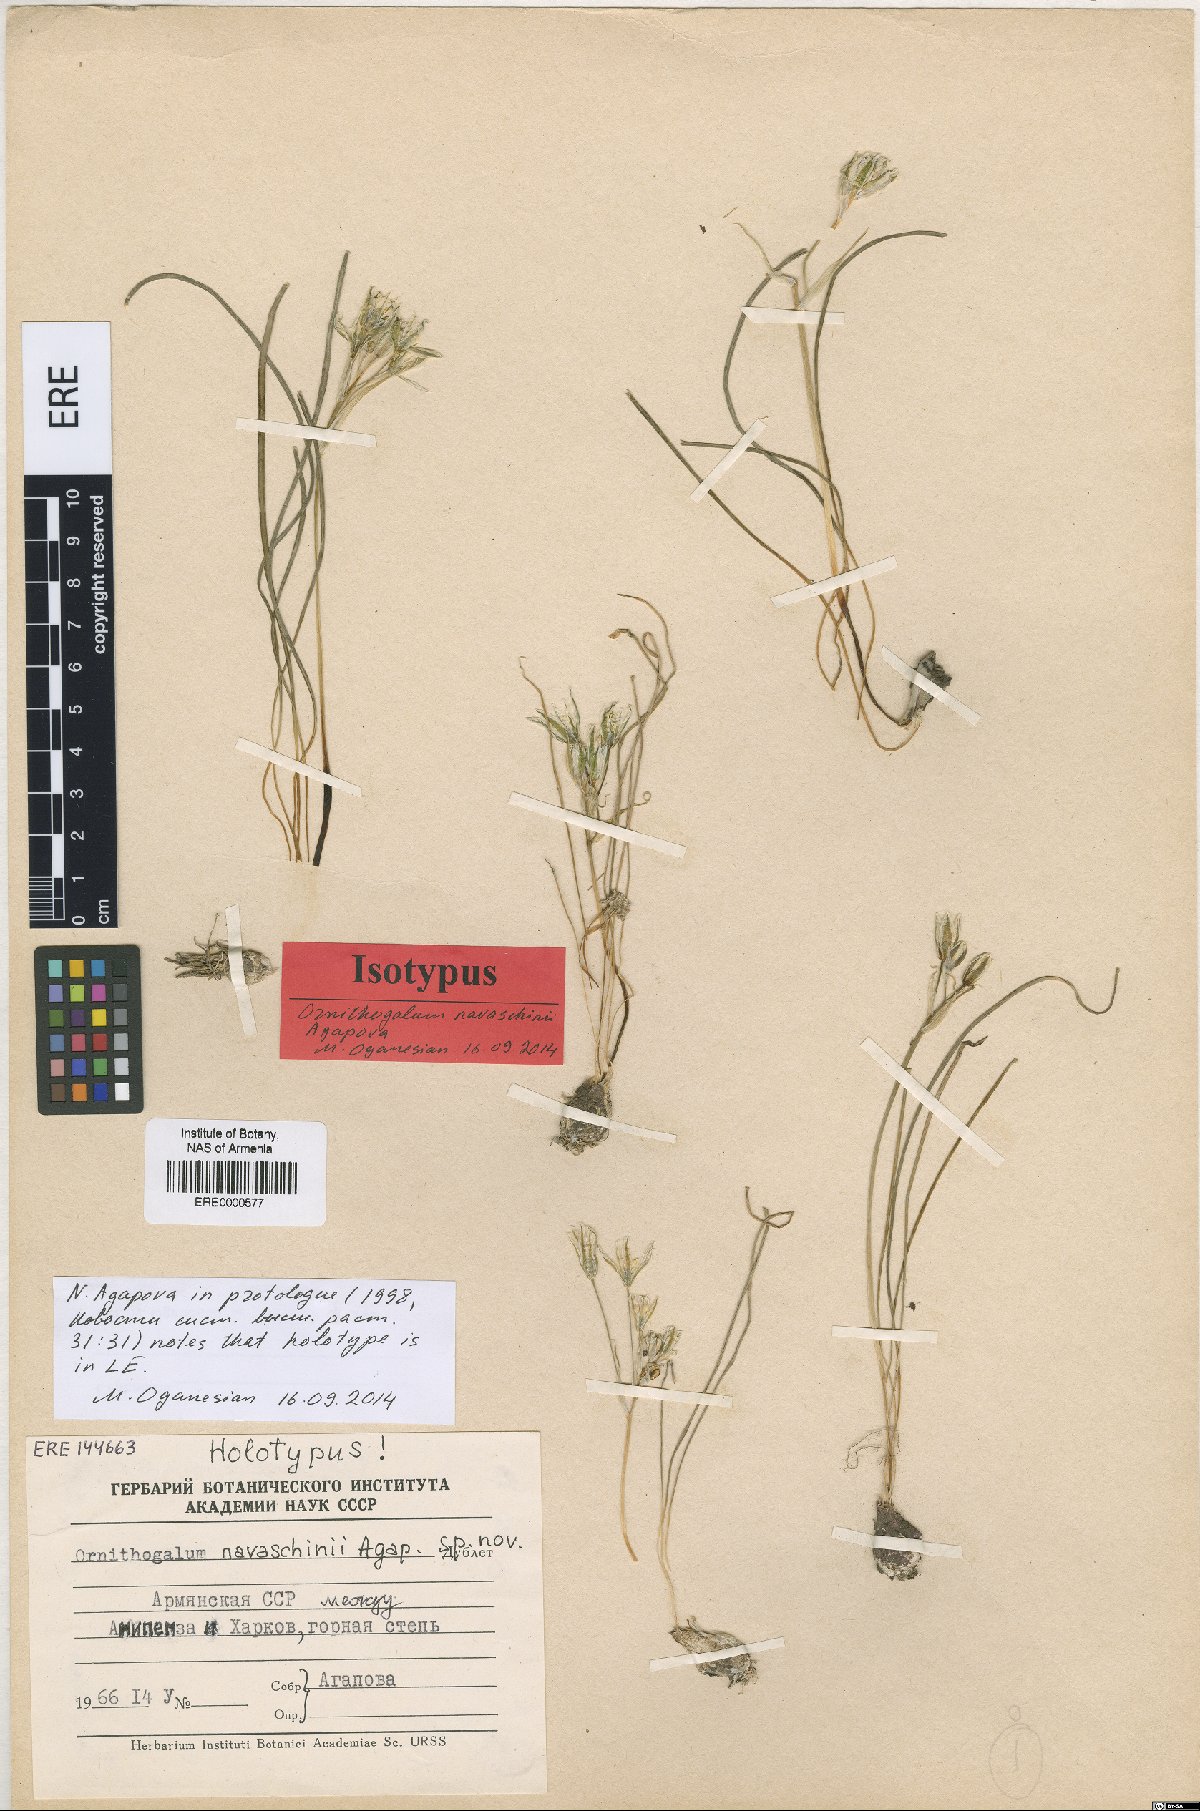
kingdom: Plantae
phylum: Tracheophyta
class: Liliopsida
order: Asparagales
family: Asparagaceae
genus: Ornithogalum
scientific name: Ornithogalum navaschinii
